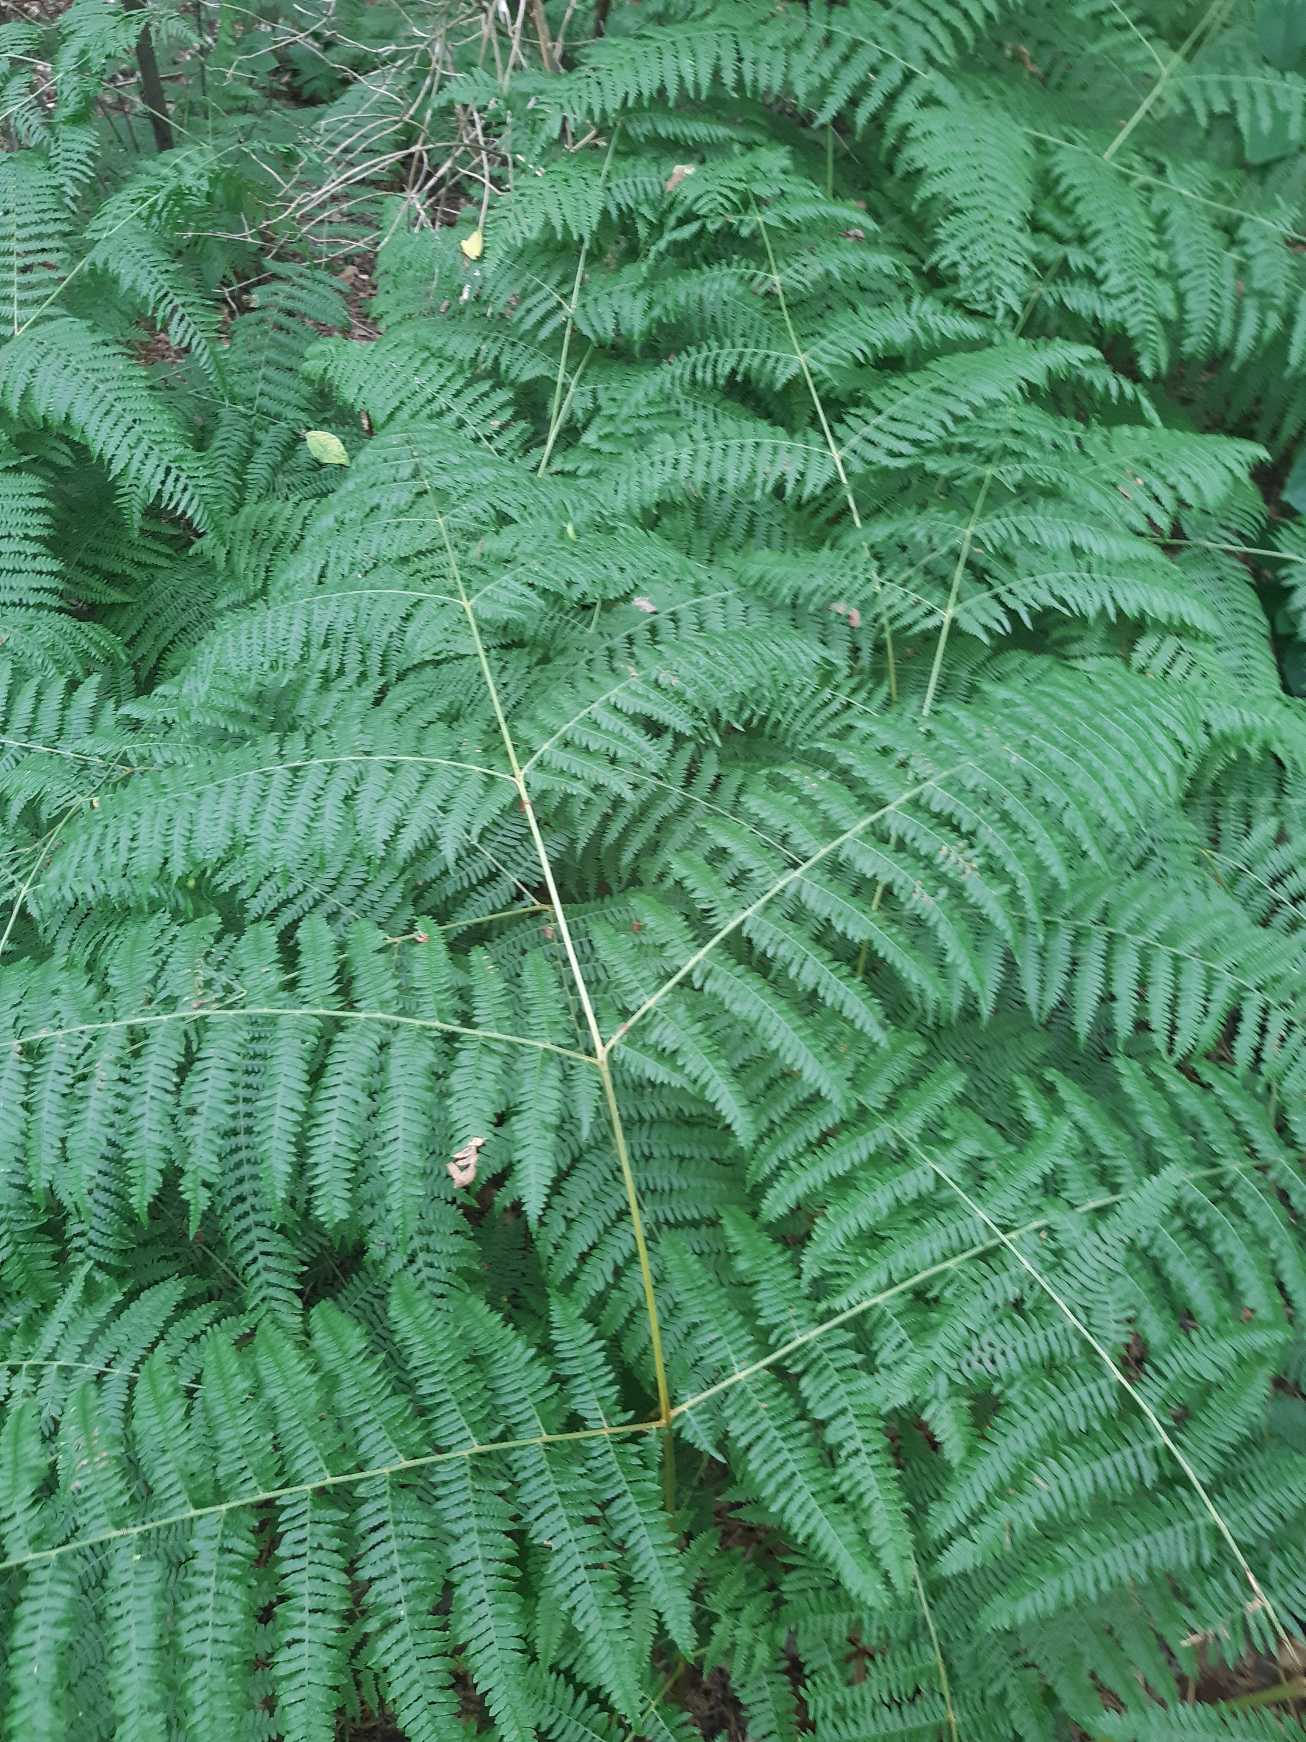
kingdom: Plantae
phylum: Tracheophyta
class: Polypodiopsida
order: Polypodiales
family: Dennstaedtiaceae
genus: Pteridium
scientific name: Pteridium aquilinum
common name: Ørnebregne
